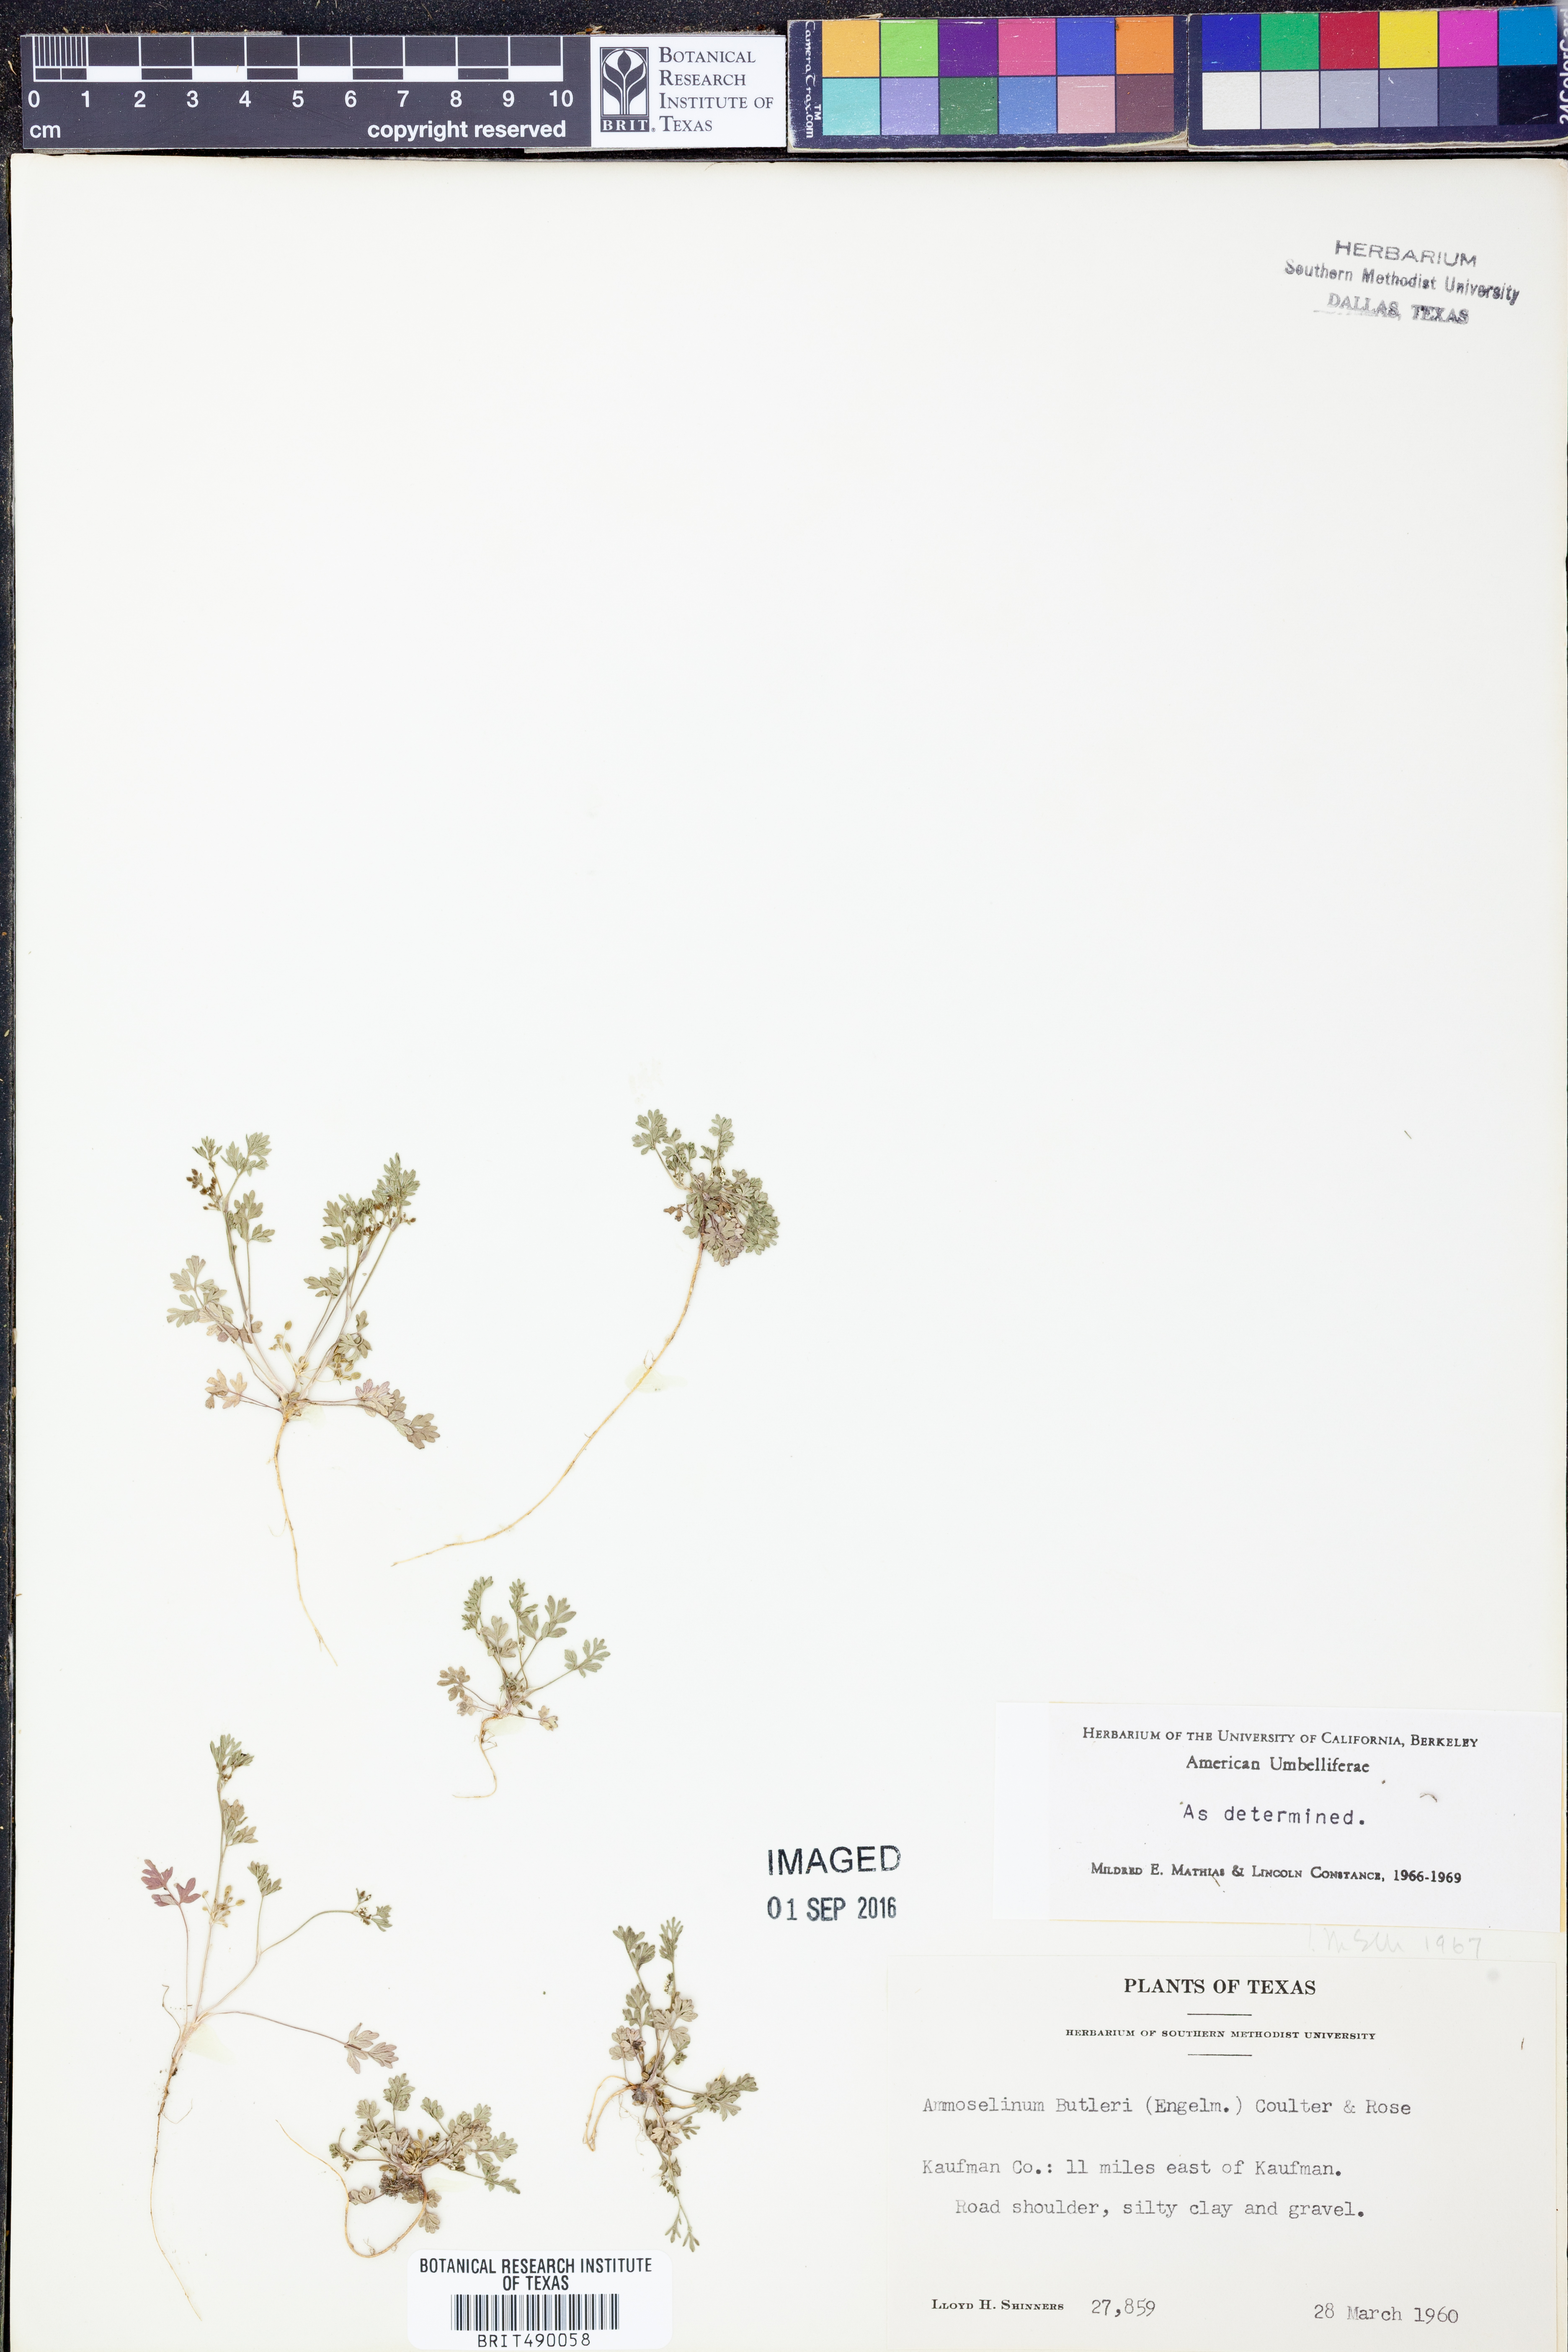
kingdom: Plantae
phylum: Tracheophyta
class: Magnoliopsida
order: Apiales
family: Apiaceae
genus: Ammoselinum
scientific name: Ammoselinum butleri
